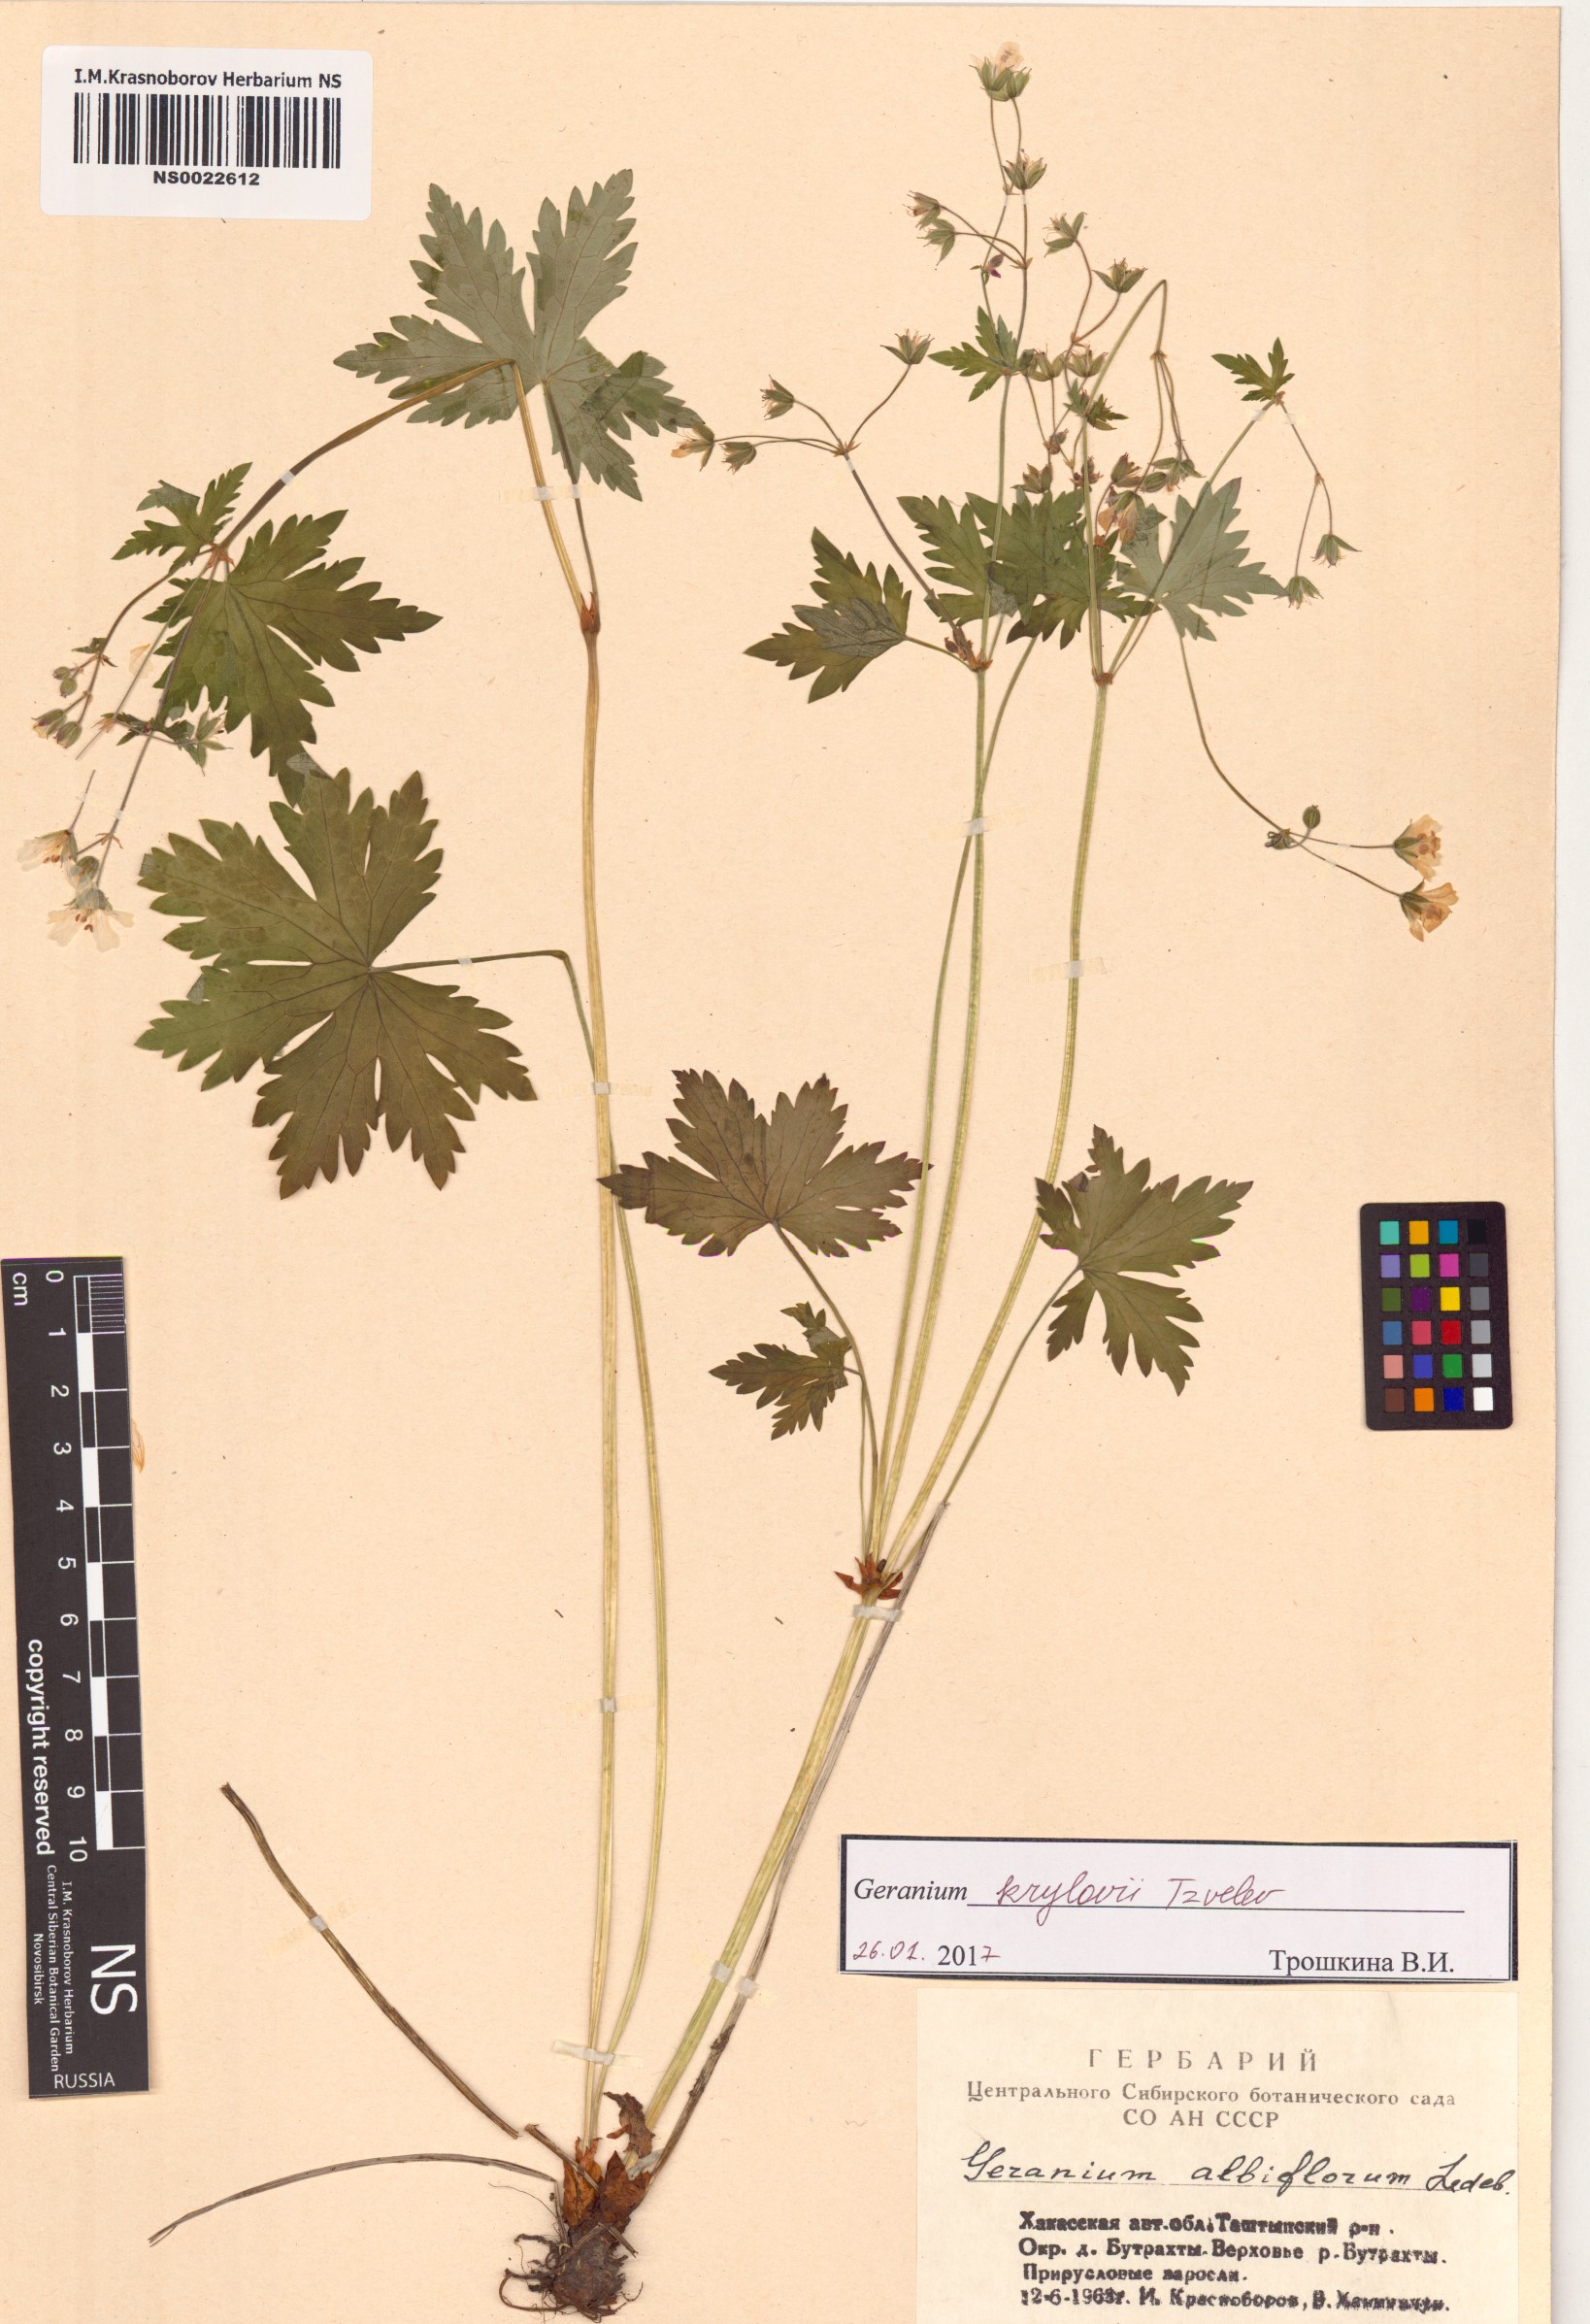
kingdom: Plantae
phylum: Tracheophyta
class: Magnoliopsida
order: Geraniales
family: Geraniaceae
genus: Geranium
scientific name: Geranium sylvaticum
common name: Wood crane's-bill
